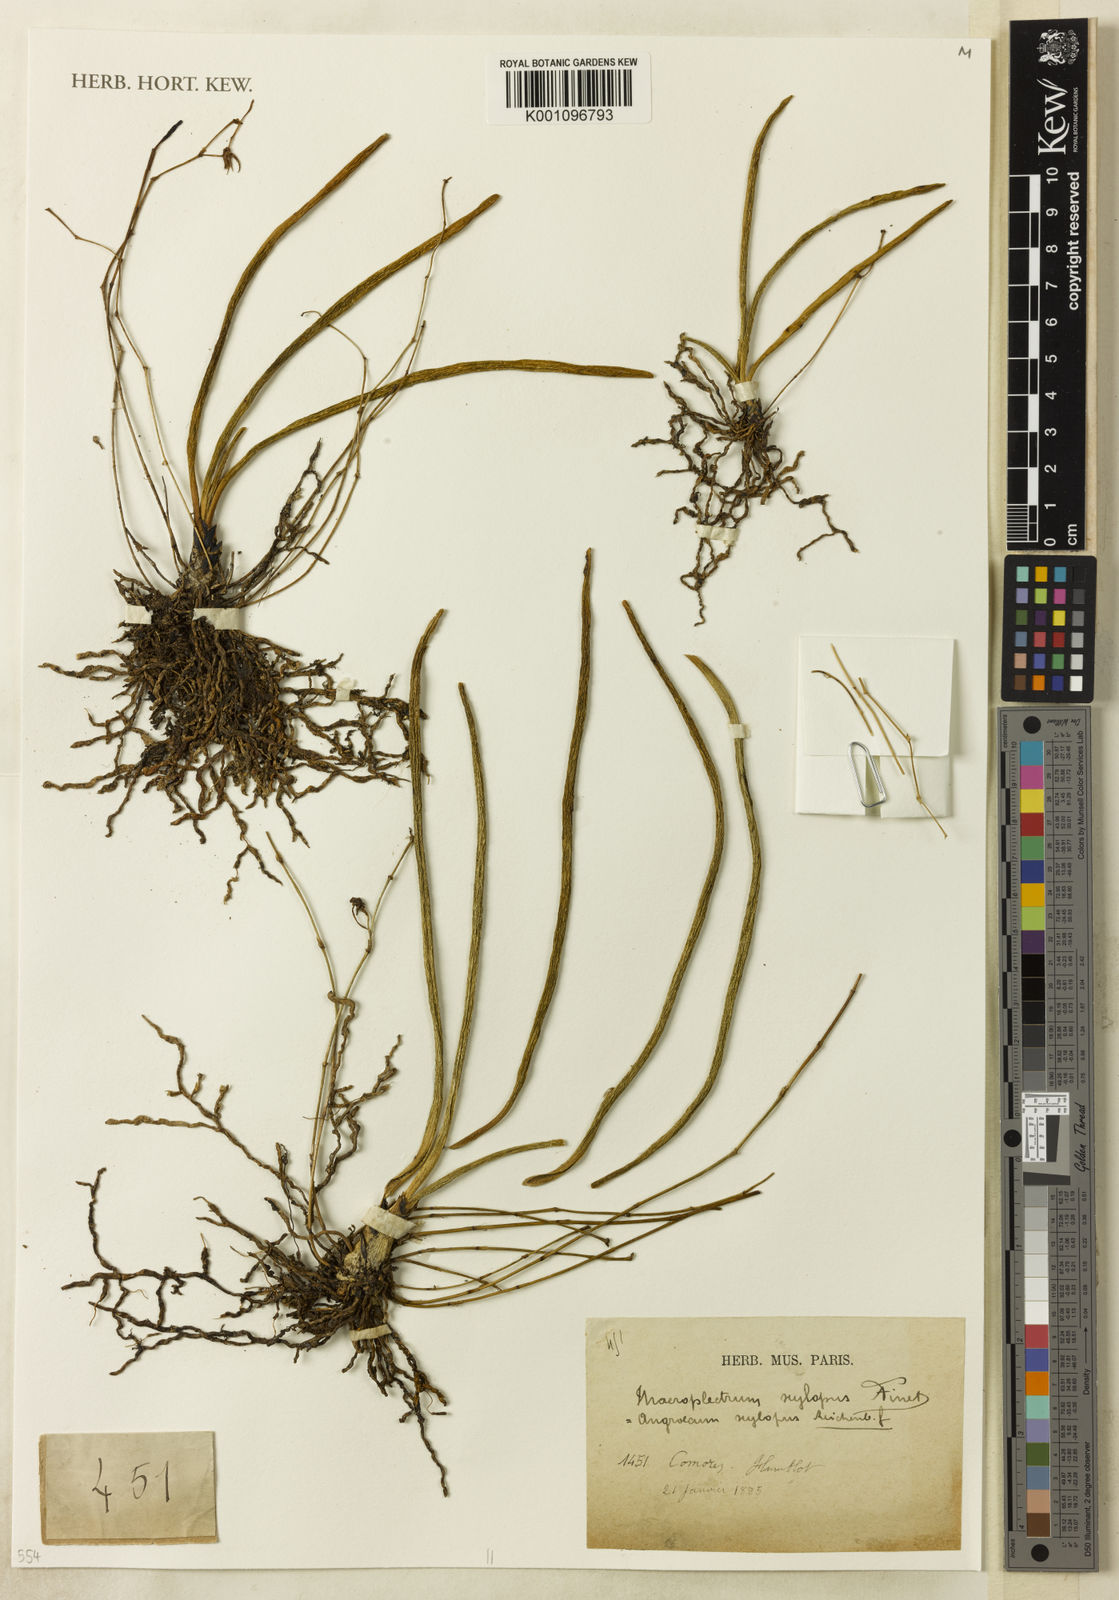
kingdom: Plantae
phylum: Tracheophyta
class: Liliopsida
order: Asparagales
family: Orchidaceae
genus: Angraecum
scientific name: Angraecum xylopus
